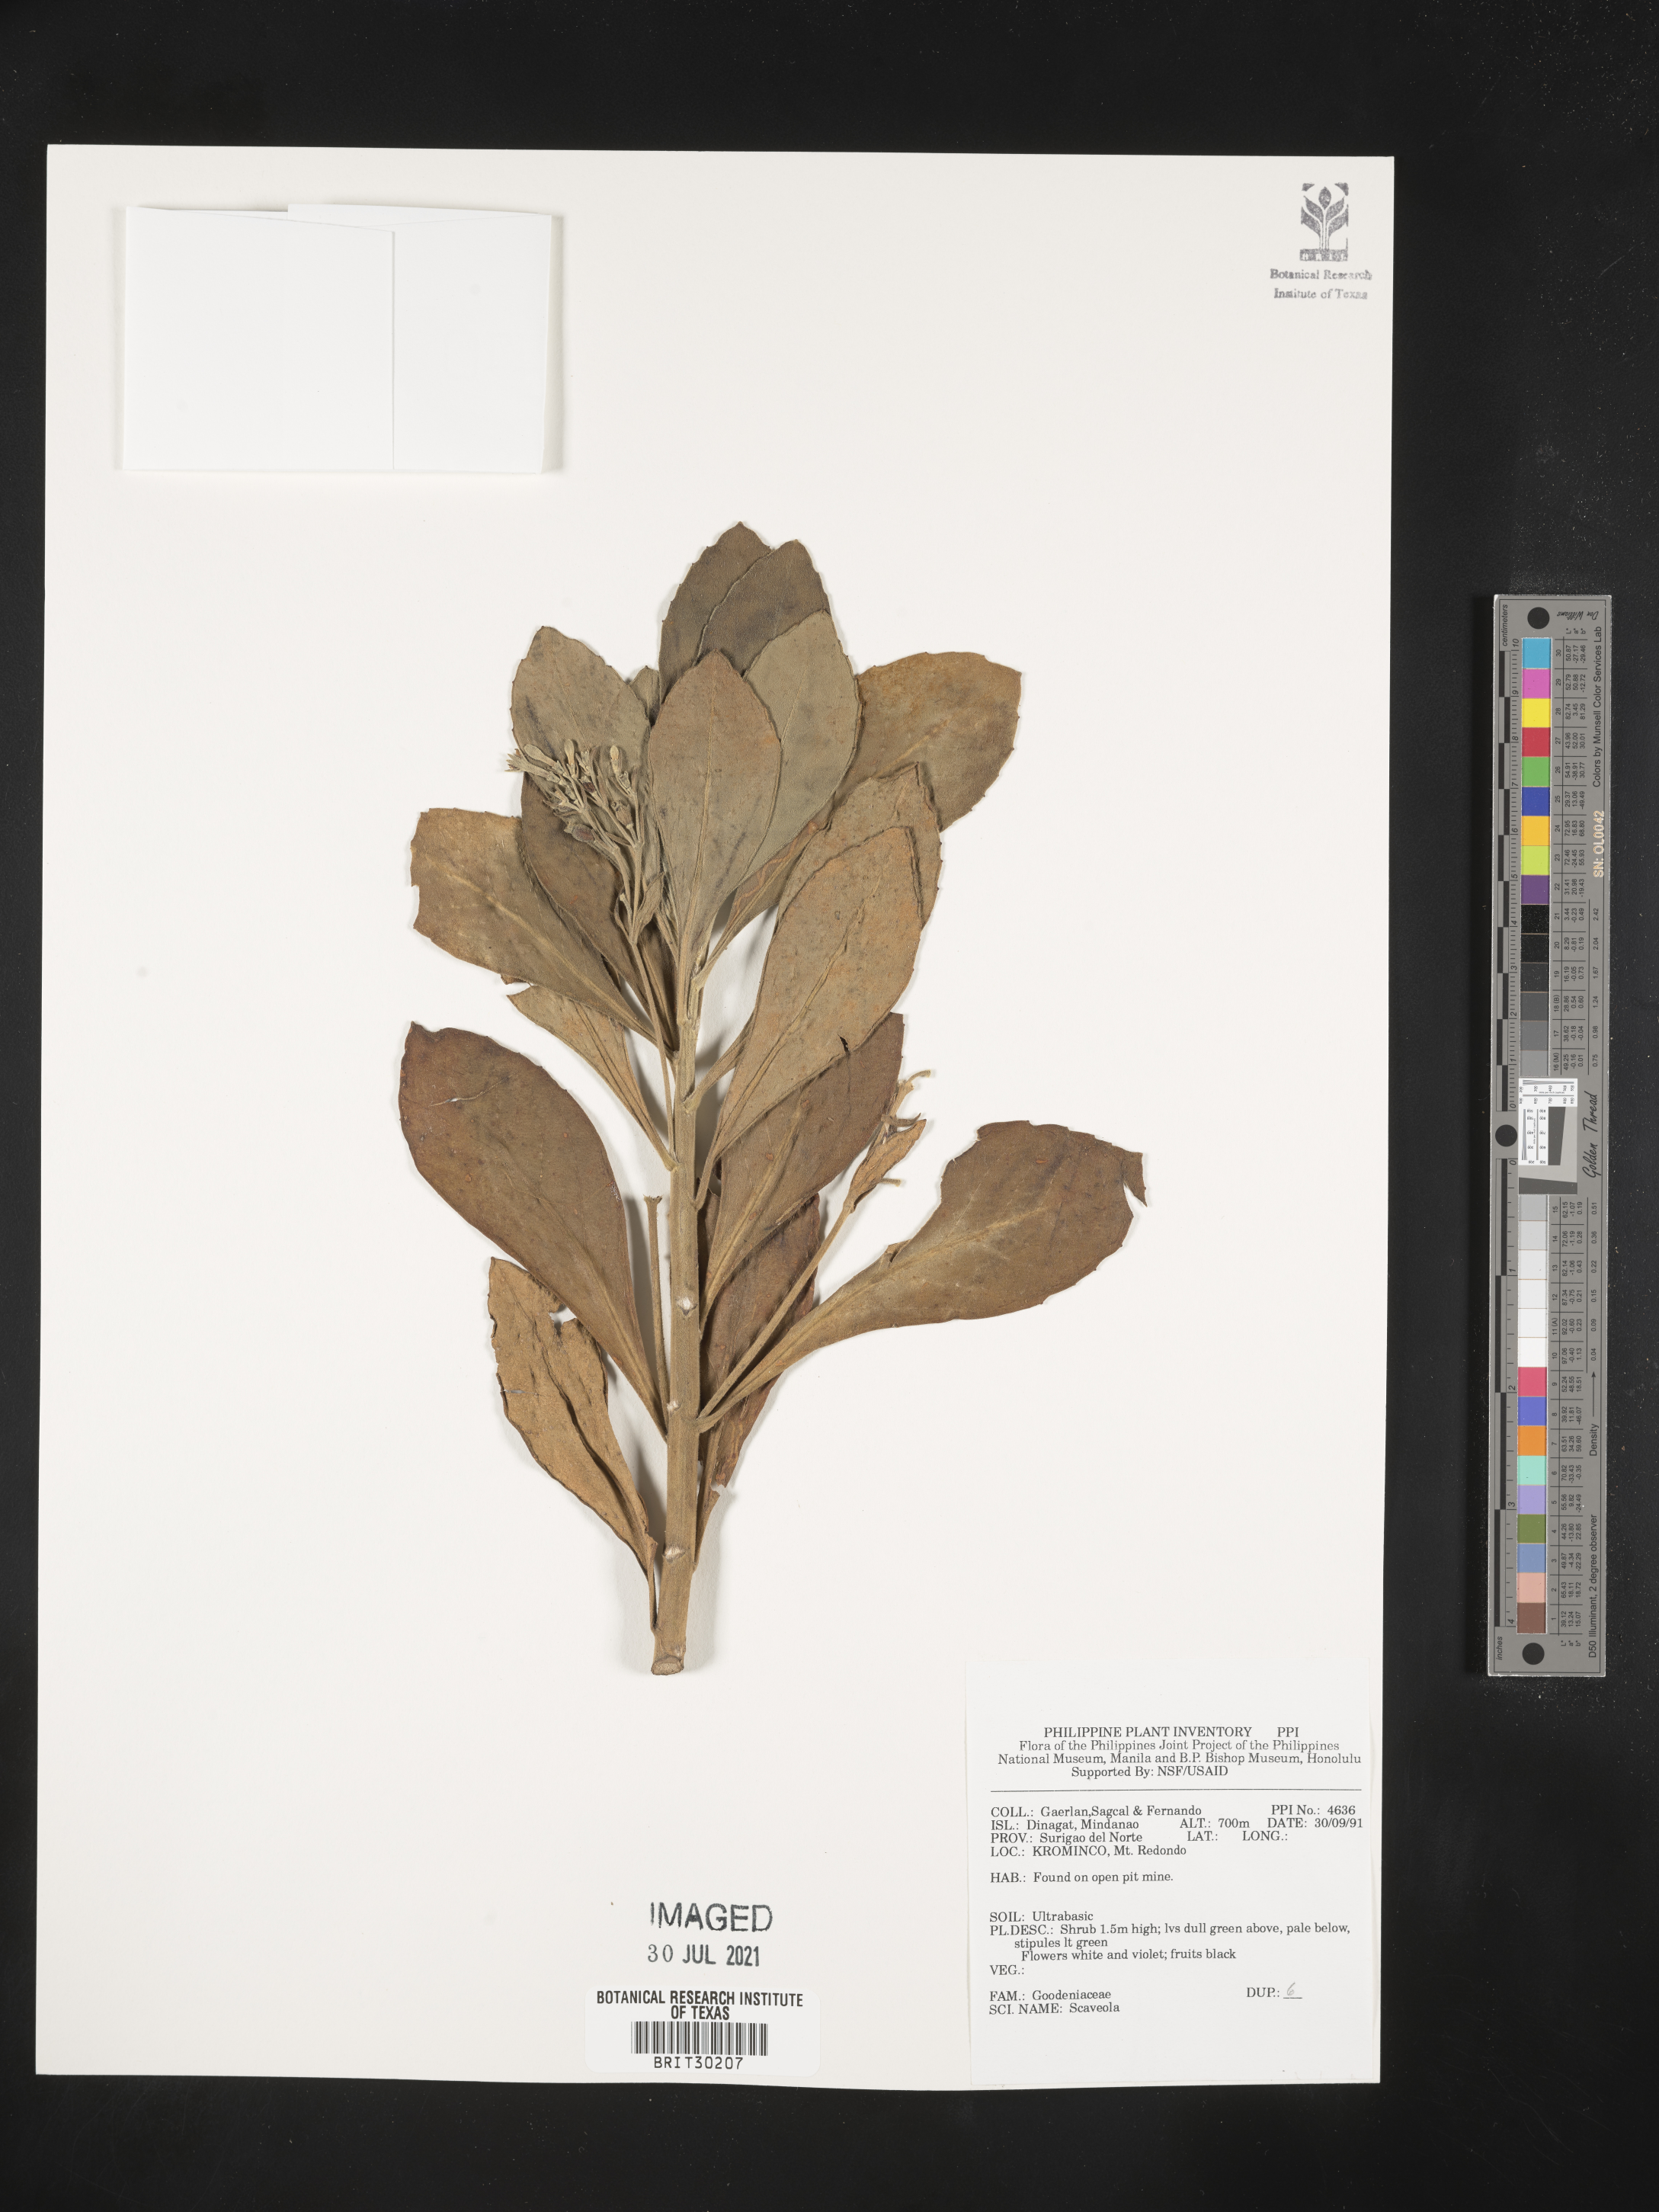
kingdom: Plantae
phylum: Tracheophyta
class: Magnoliopsida
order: Asterales
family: Goodeniaceae
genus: Scaevola
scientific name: Scaevola
